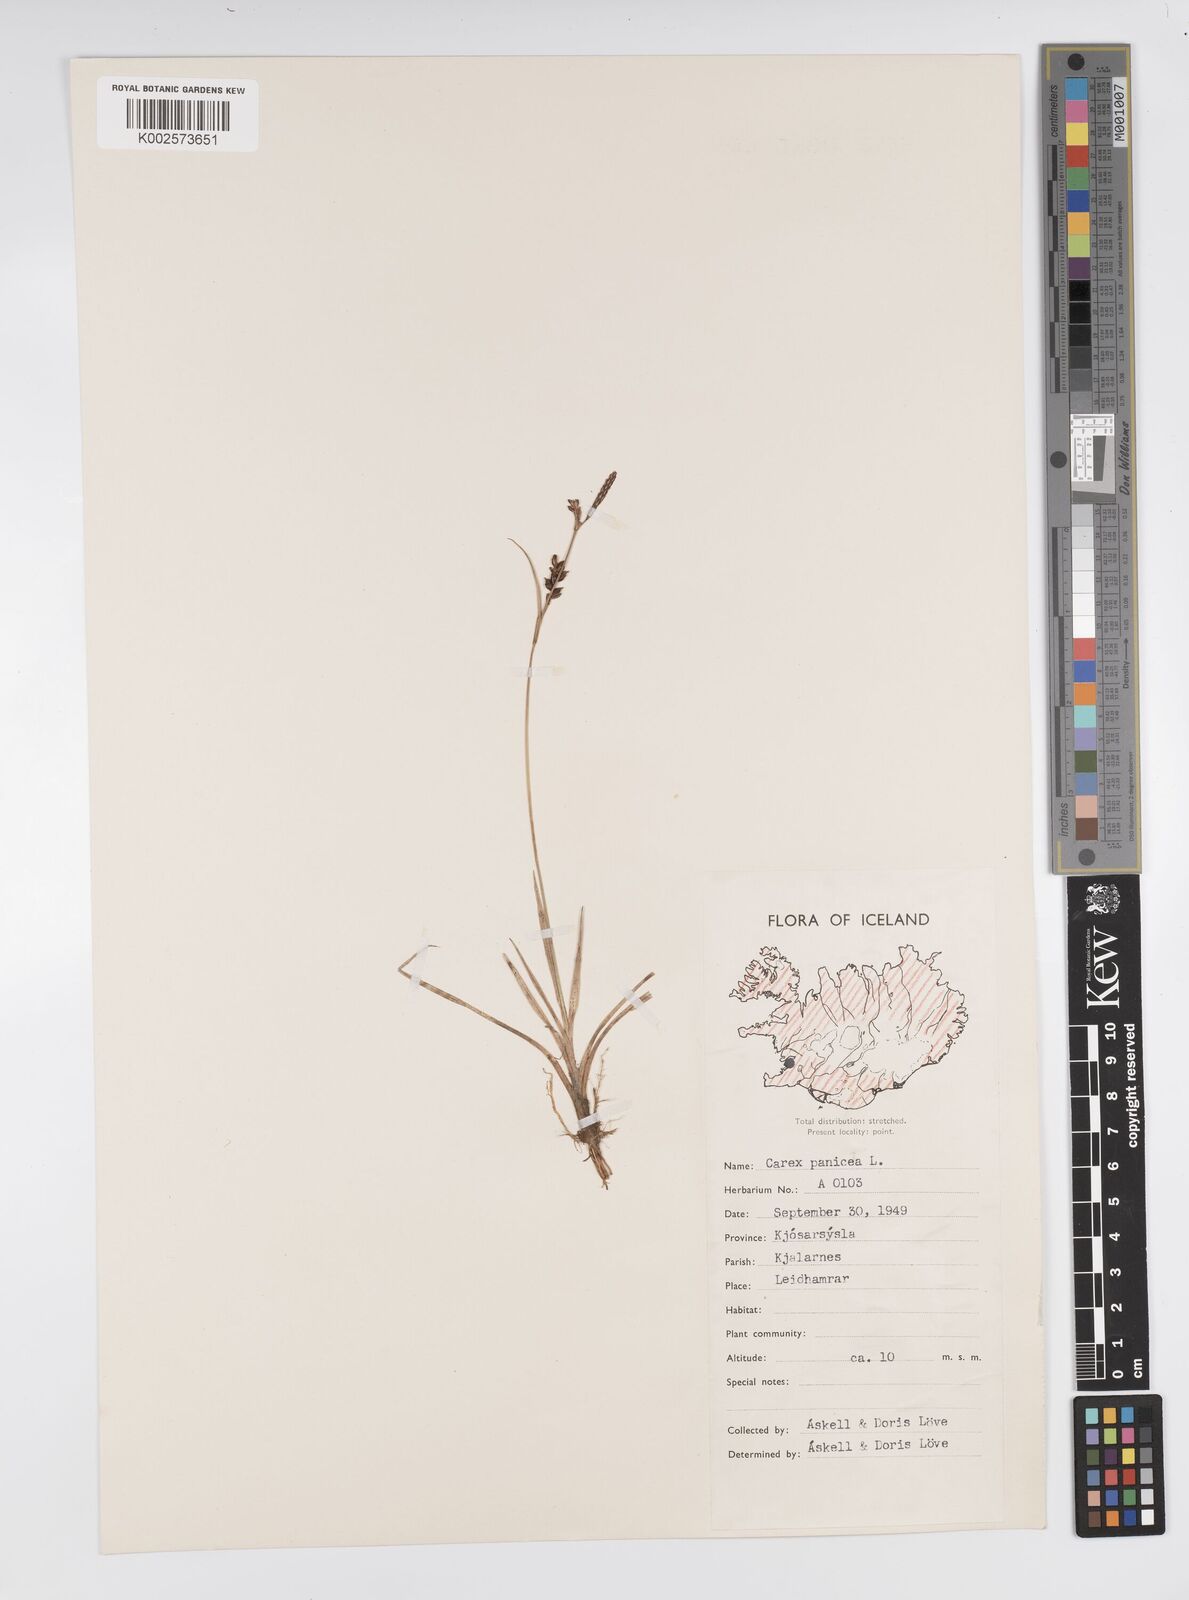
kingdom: Plantae
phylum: Tracheophyta
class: Liliopsida
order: Poales
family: Cyperaceae
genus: Carex
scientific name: Carex panicea
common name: Carnation sedge
